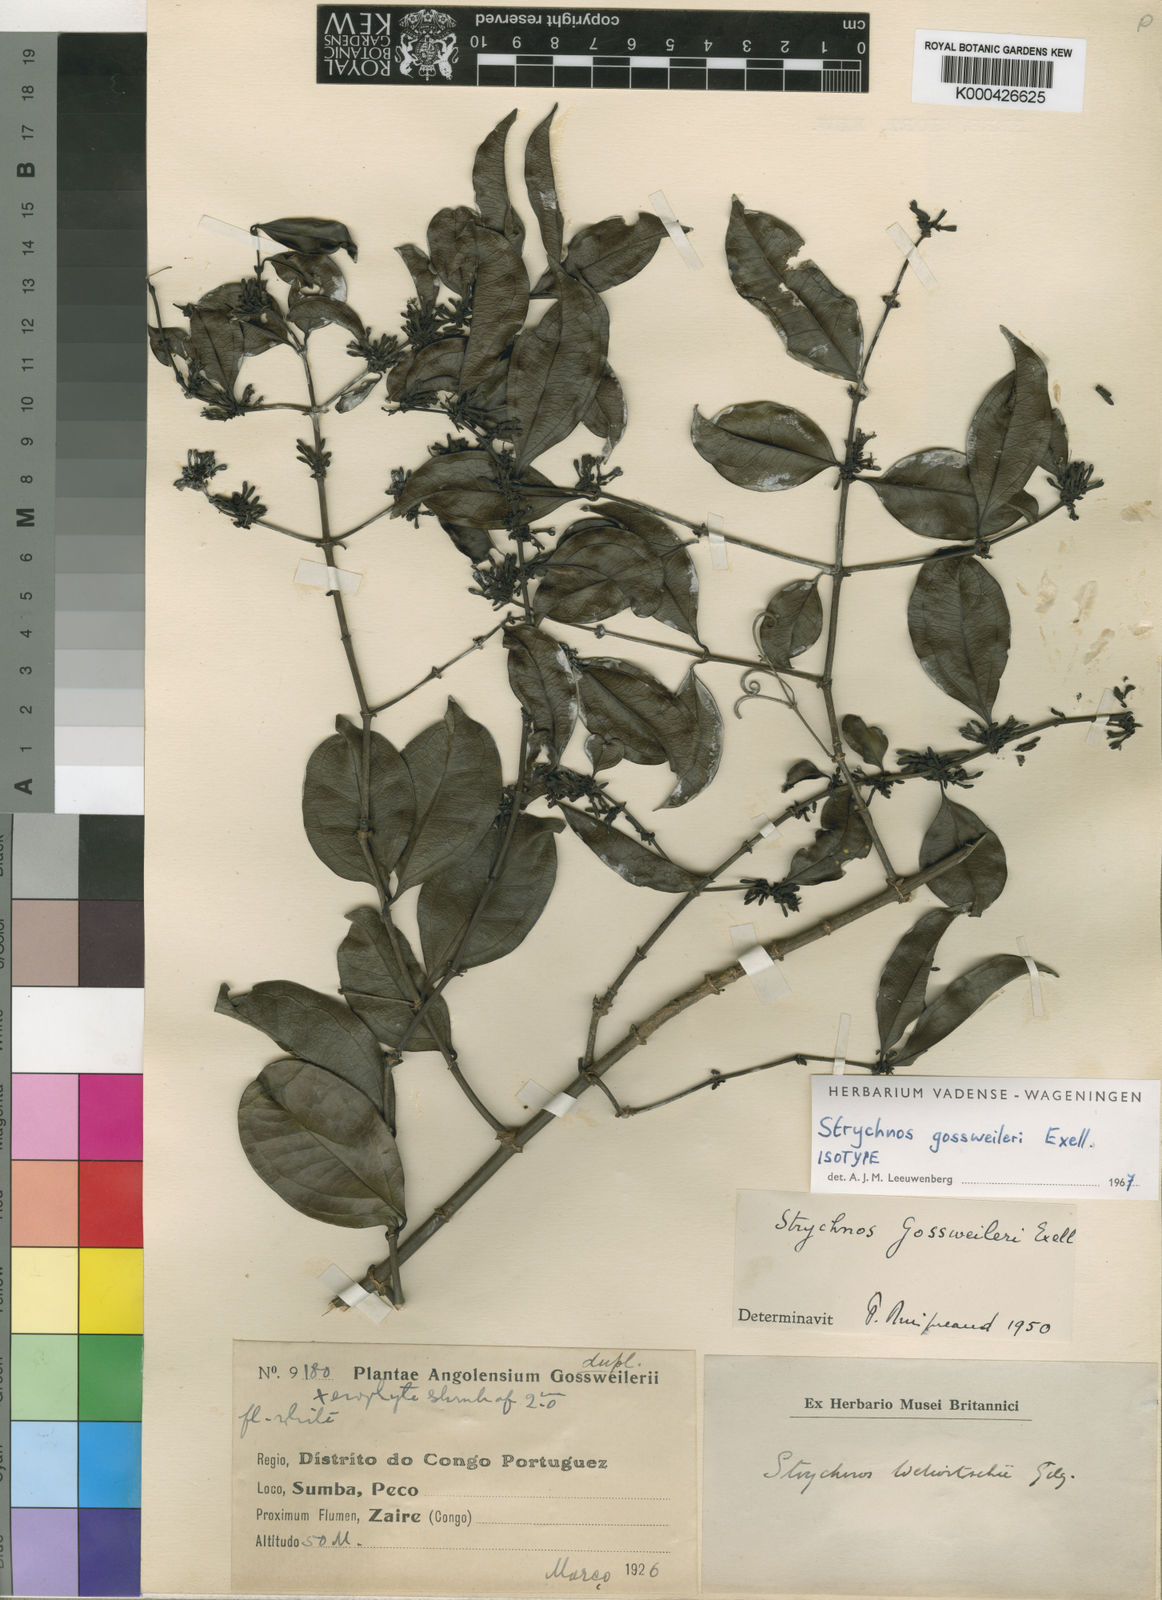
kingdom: Plantae
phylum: Tracheophyta
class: Magnoliopsida
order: Gentianales
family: Loganiaceae
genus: Strychnos
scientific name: Strychnos gossweileri
